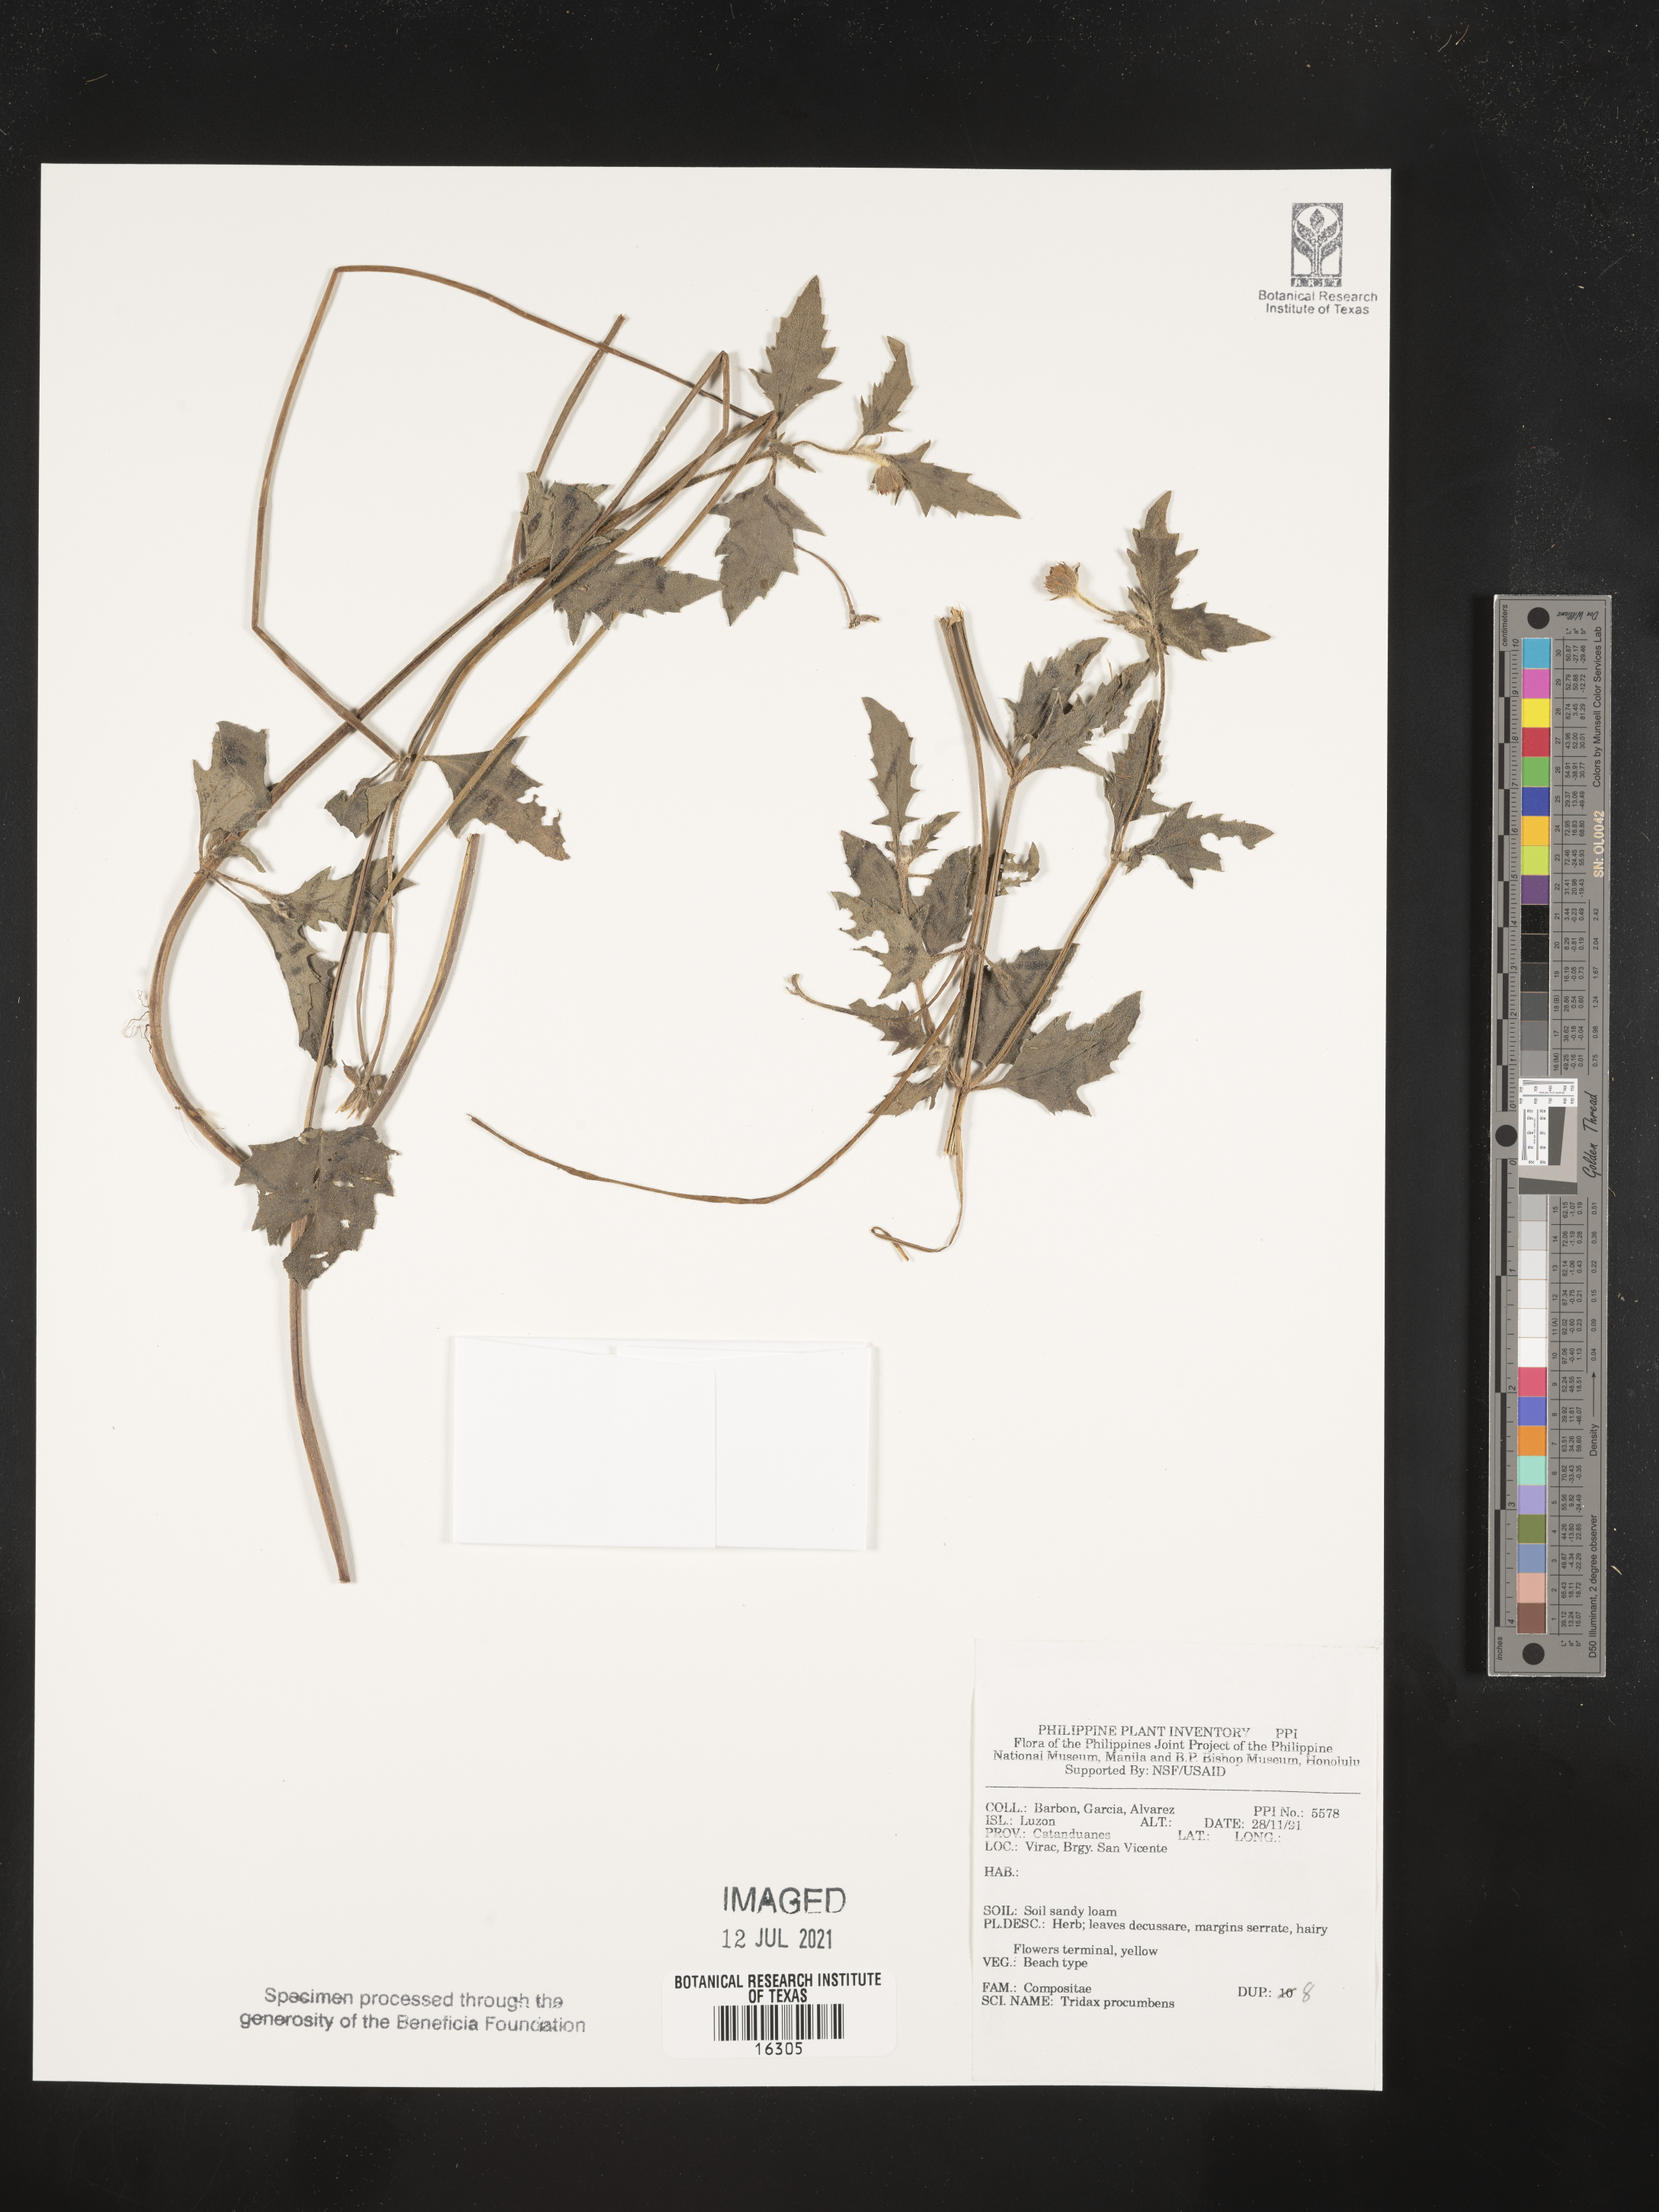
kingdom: Plantae
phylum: Tracheophyta
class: Magnoliopsida
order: Asterales
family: Asteraceae
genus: Tridax
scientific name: Tridax procumbens
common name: Coatbuttons
